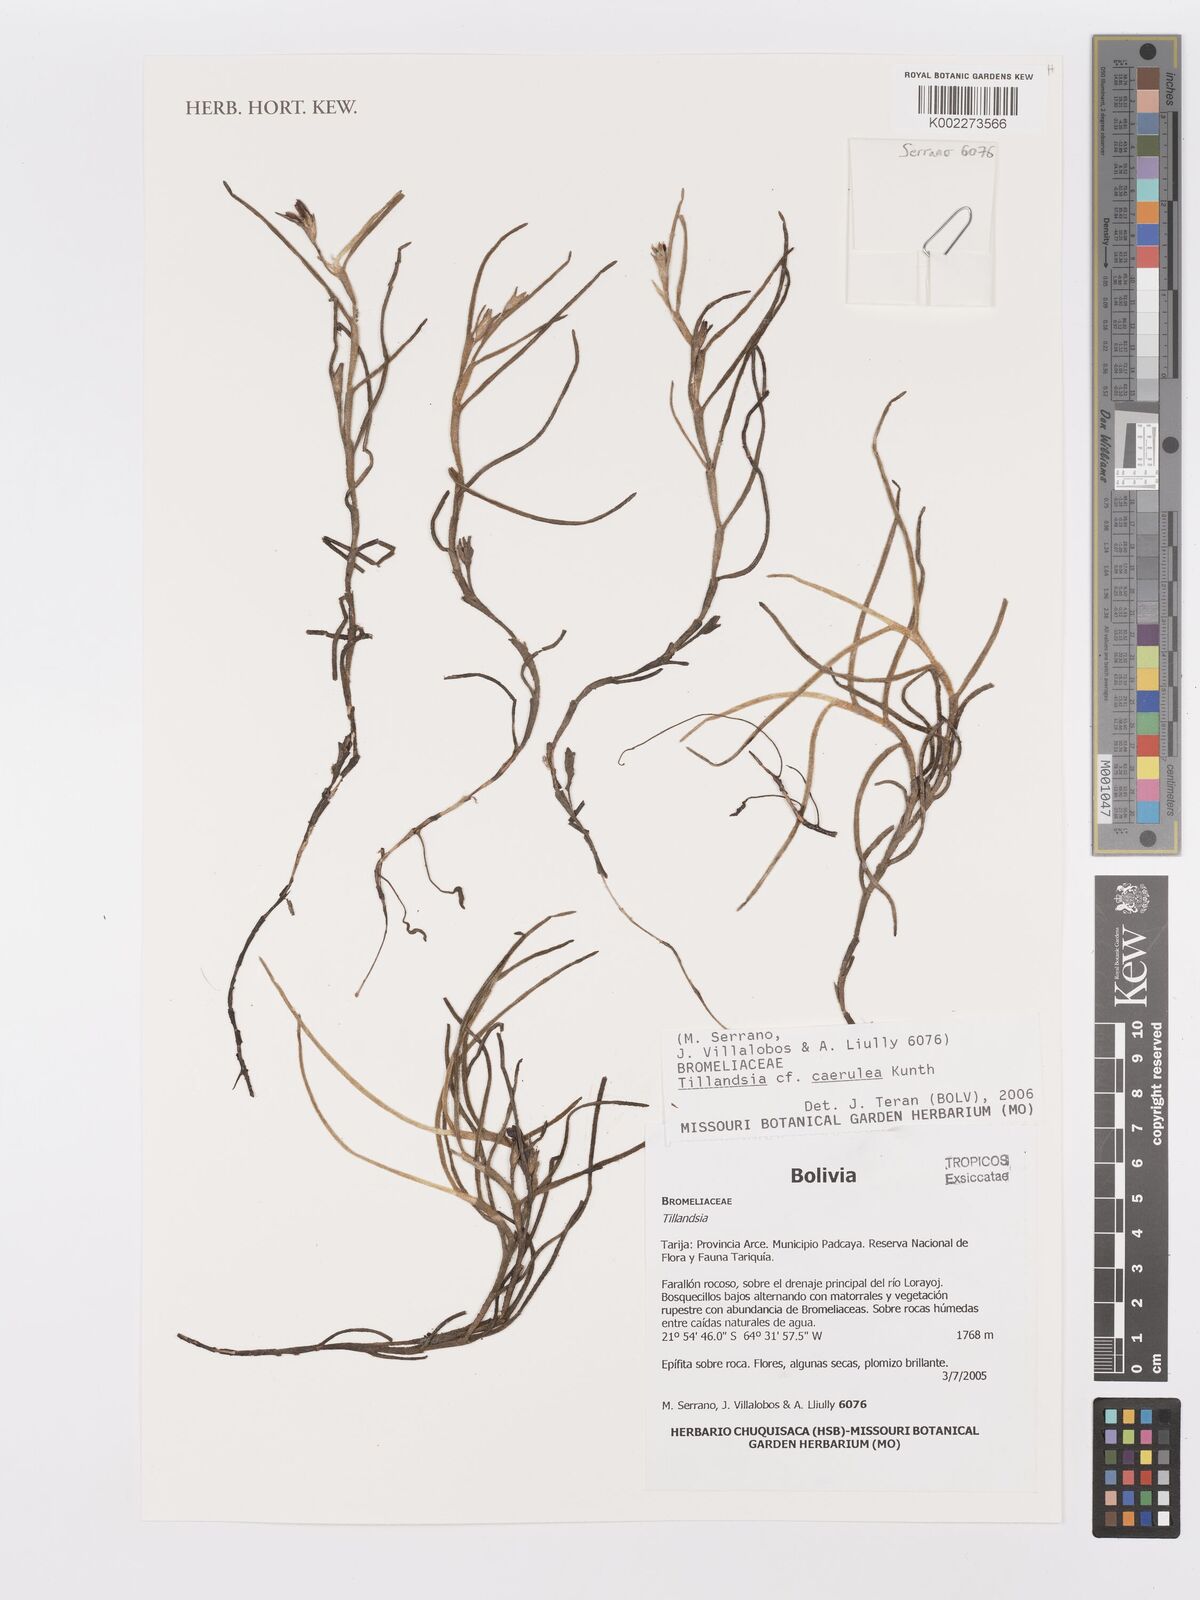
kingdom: Plantae
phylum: Tracheophyta
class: Liliopsida
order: Poales
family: Bromeliaceae
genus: Tillandsia
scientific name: Tillandsia caerulea
